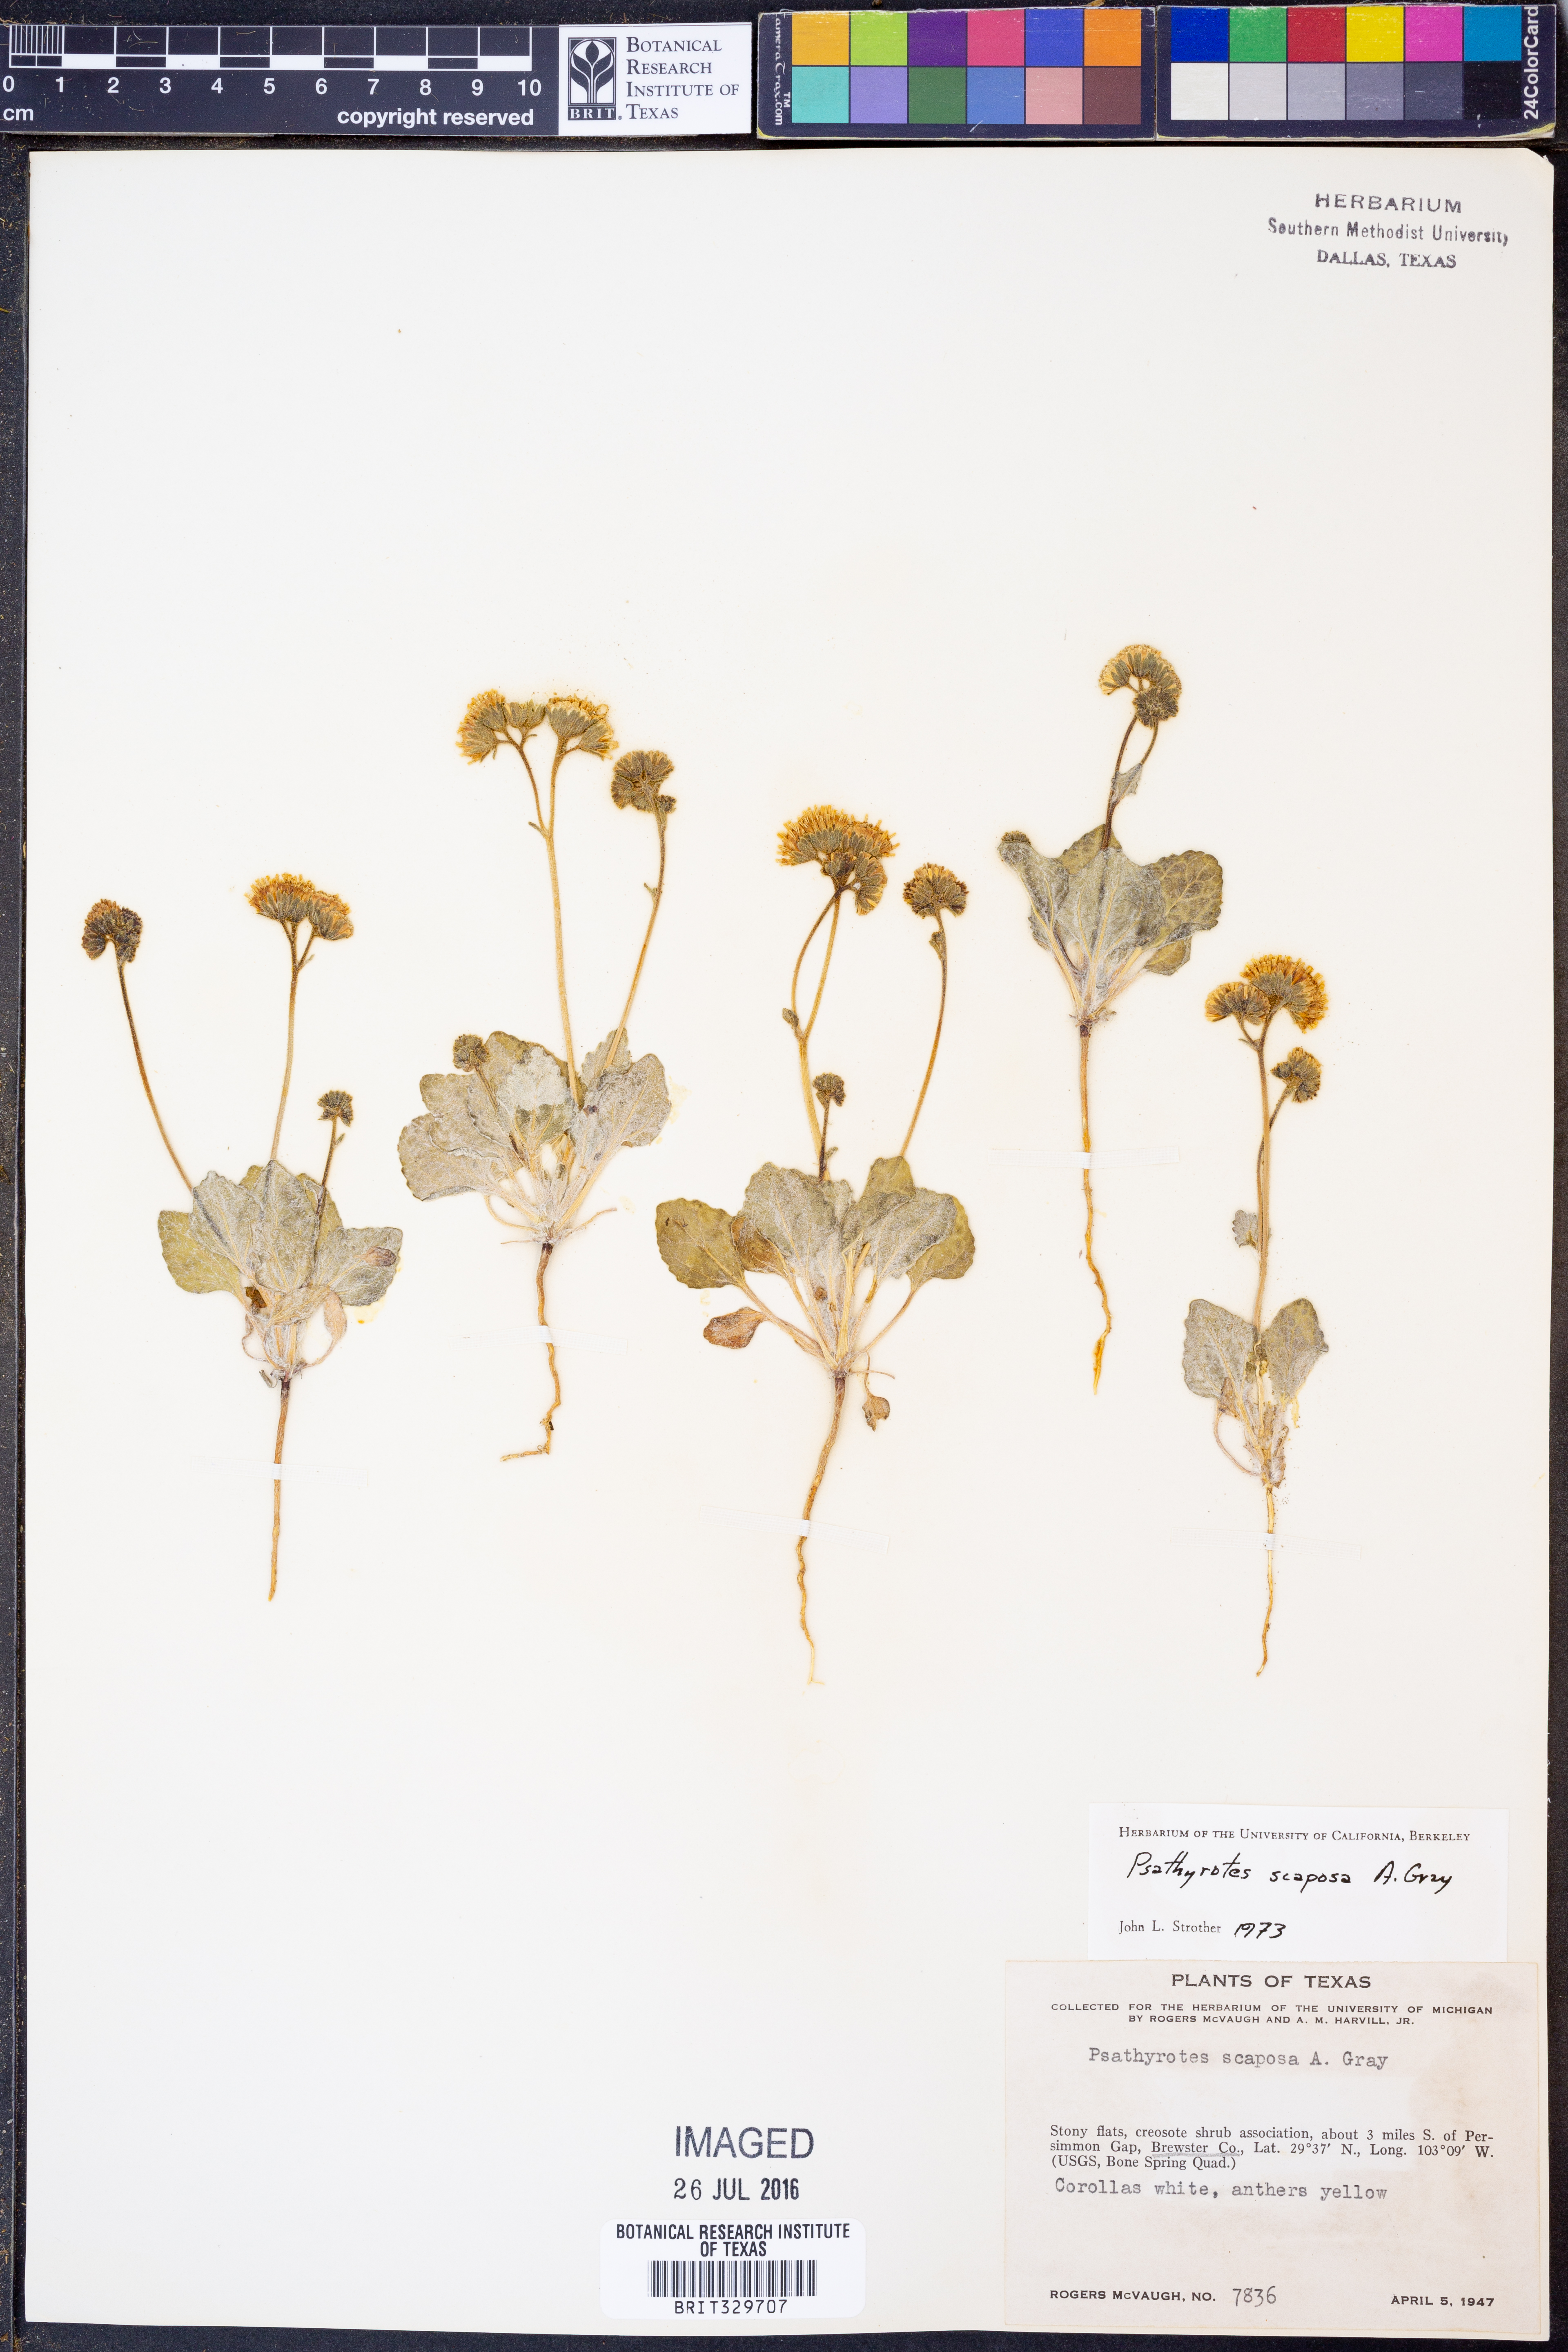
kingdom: Plantae
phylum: Tracheophyta
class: Magnoliopsida
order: Asterales
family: Asteraceae
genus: Psathyrotopsis
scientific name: Psathyrotopsis scaposa
